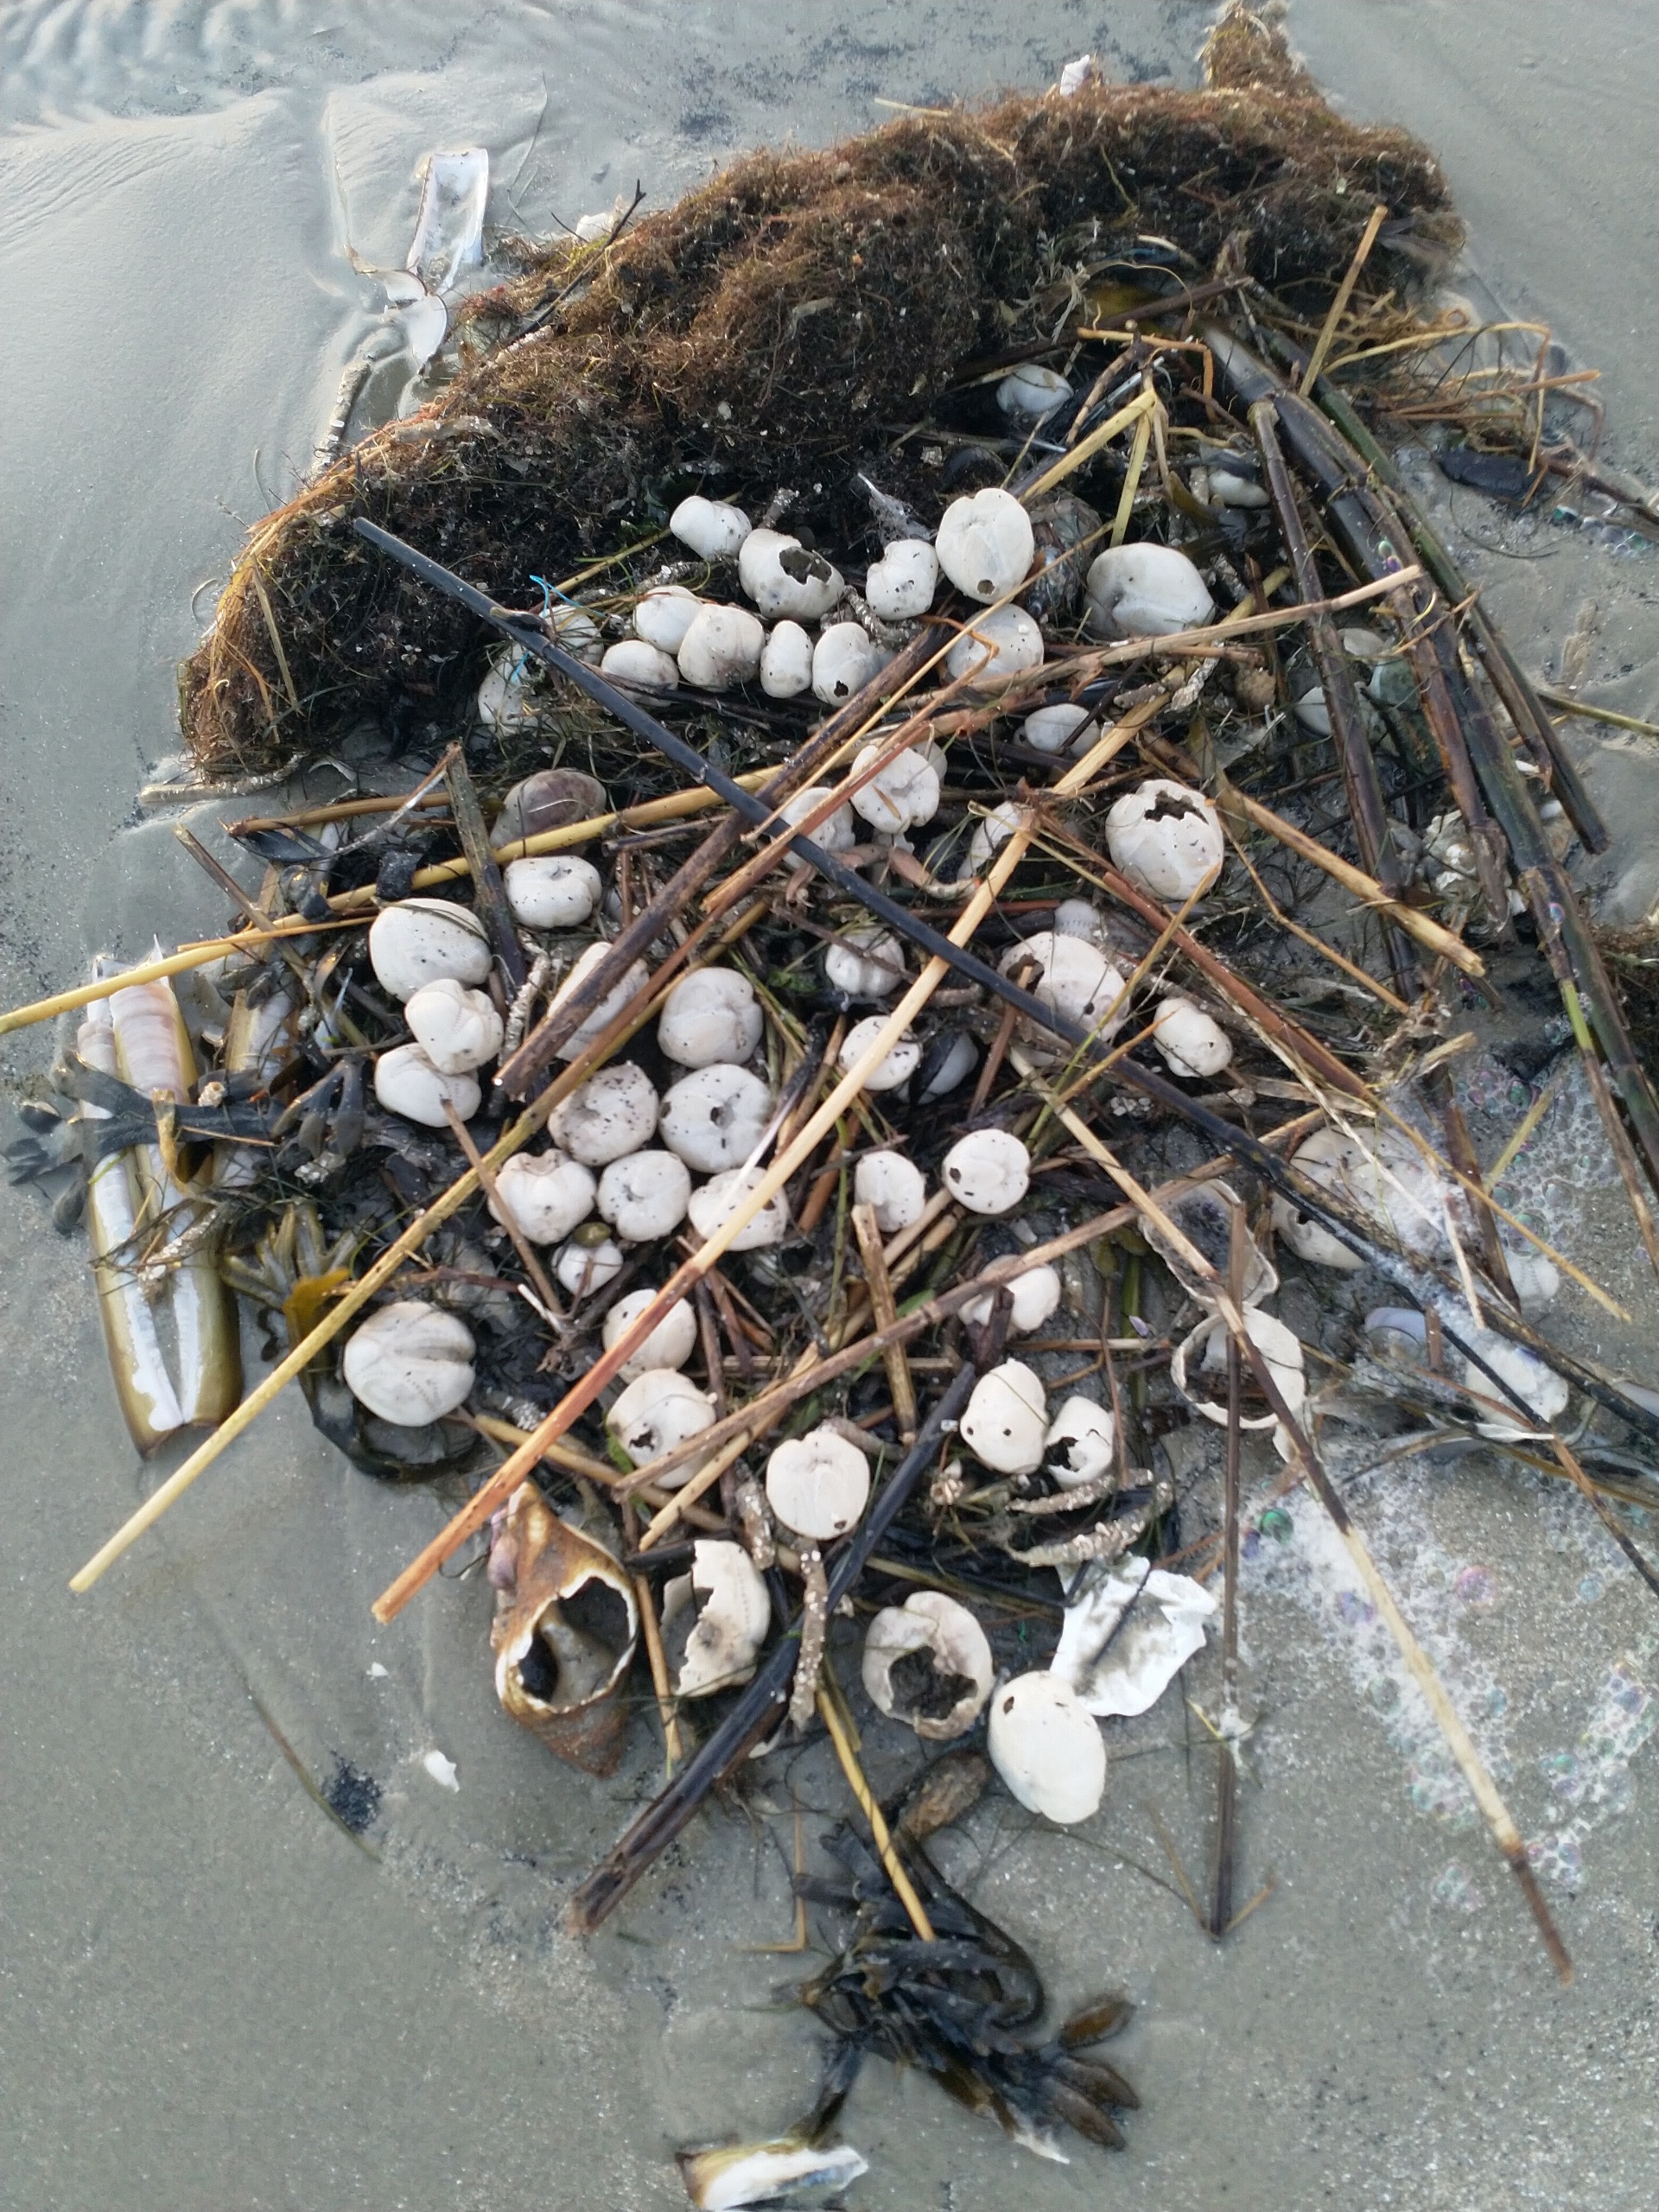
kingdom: Animalia
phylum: Echinodermata
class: Echinoidea
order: Spatangoida
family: Loveniidae
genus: Echinocardium
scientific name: Echinocardium cordatum
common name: Almindelig sømus
